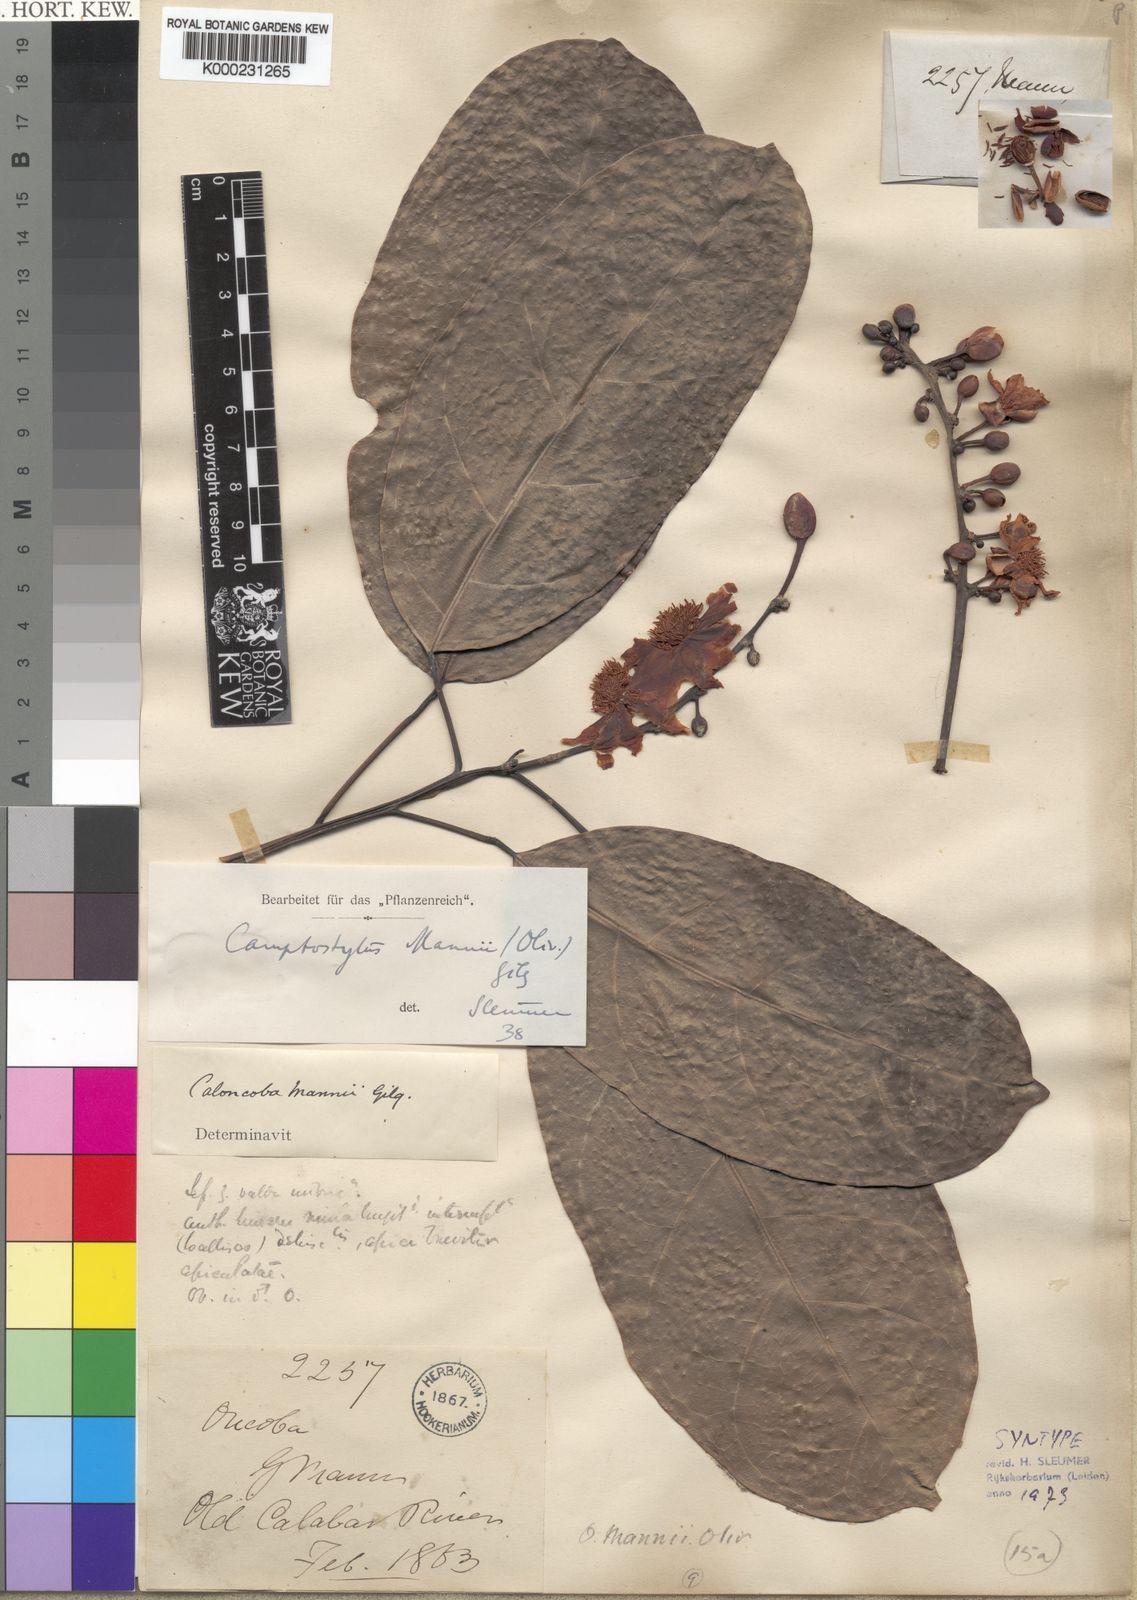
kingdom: Plantae
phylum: Tracheophyta
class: Magnoliopsida
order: Malpighiales
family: Achariaceae
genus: Camptostylus
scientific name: Camptostylus mannii
